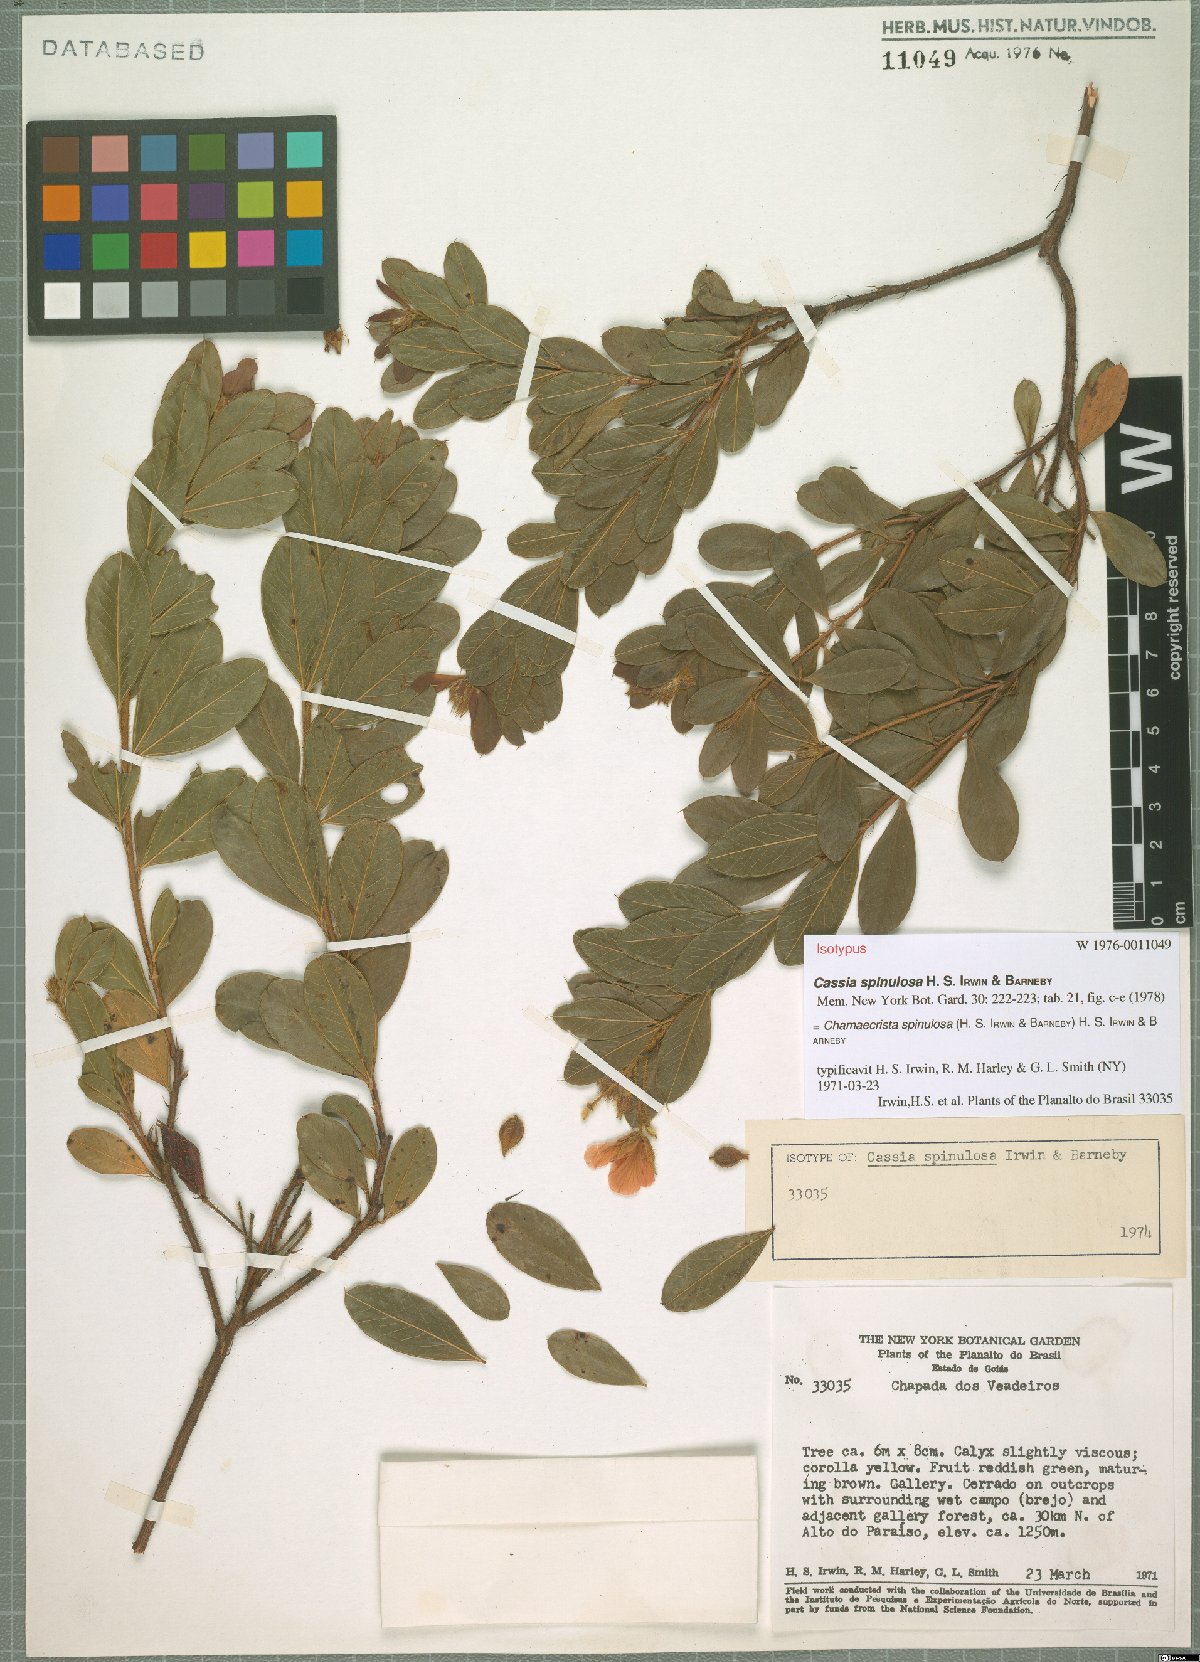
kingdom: Plantae
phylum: Tracheophyta
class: Magnoliopsida
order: Fabales
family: Fabaceae
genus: Chamaecrista
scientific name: Chamaecrista spinulosa
